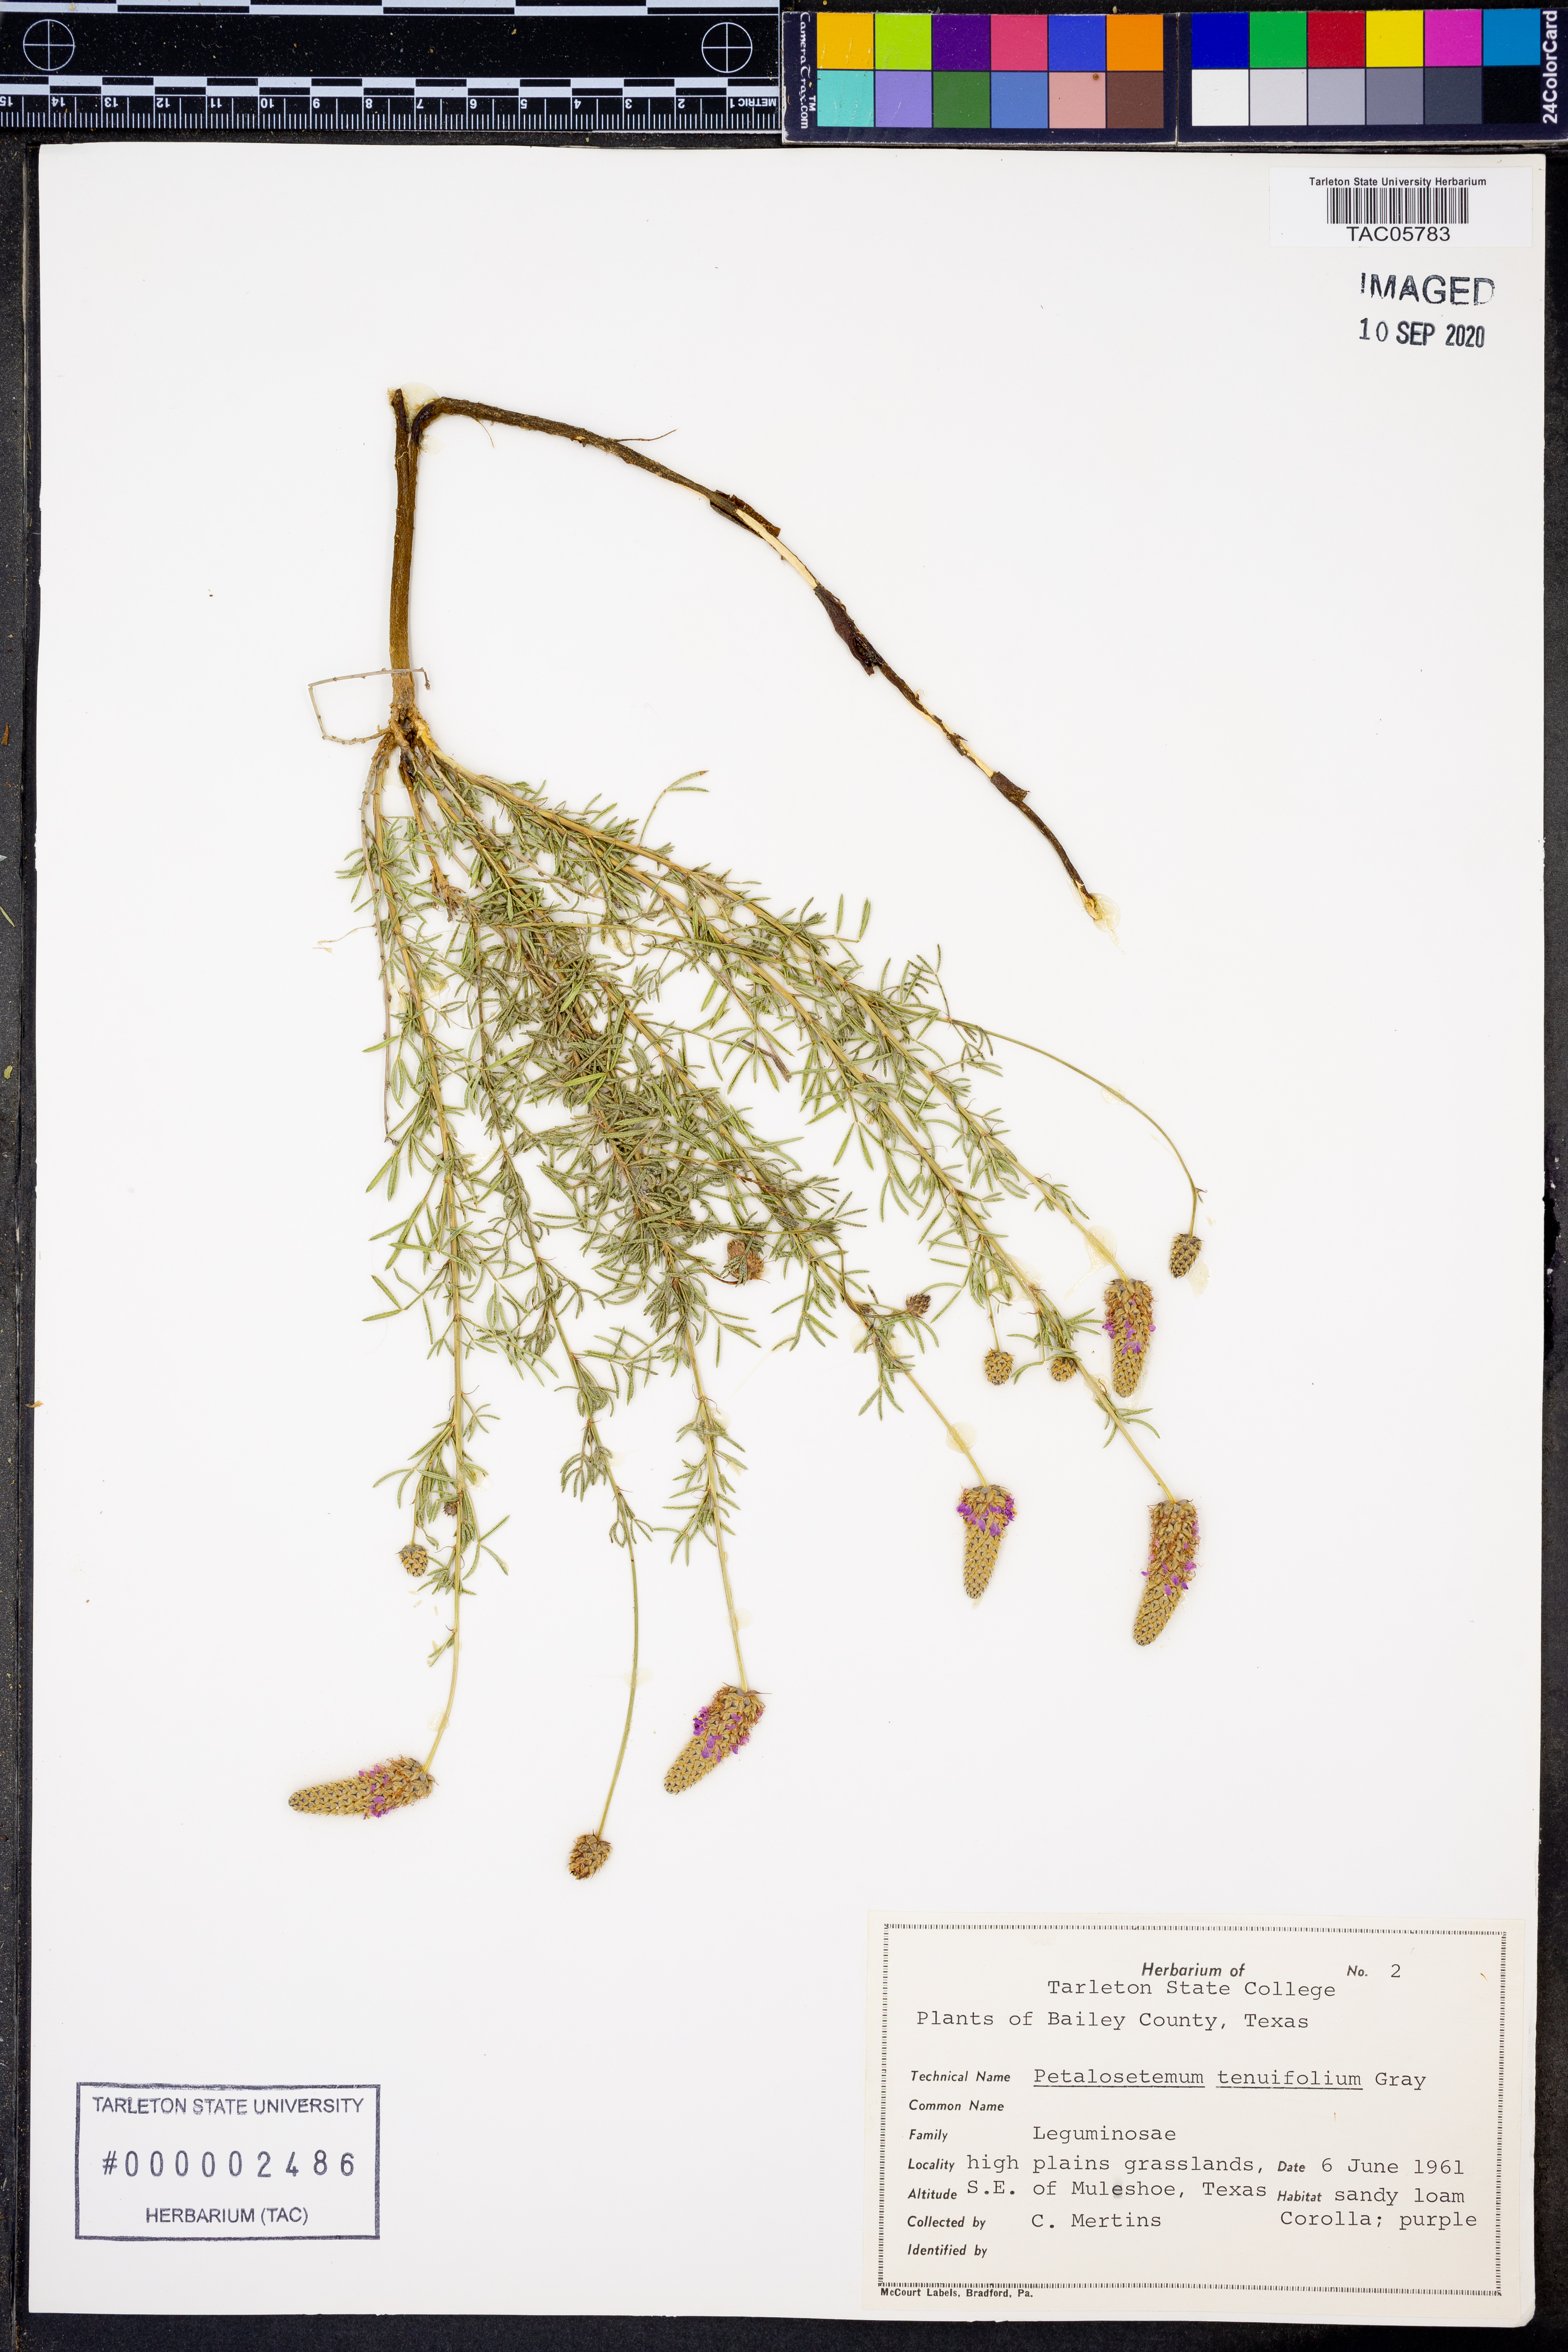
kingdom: Plantae
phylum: Tracheophyta
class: Magnoliopsida
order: Fabales
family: Fabaceae
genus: Dalea
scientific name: Dalea candida
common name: White prairie-clover
